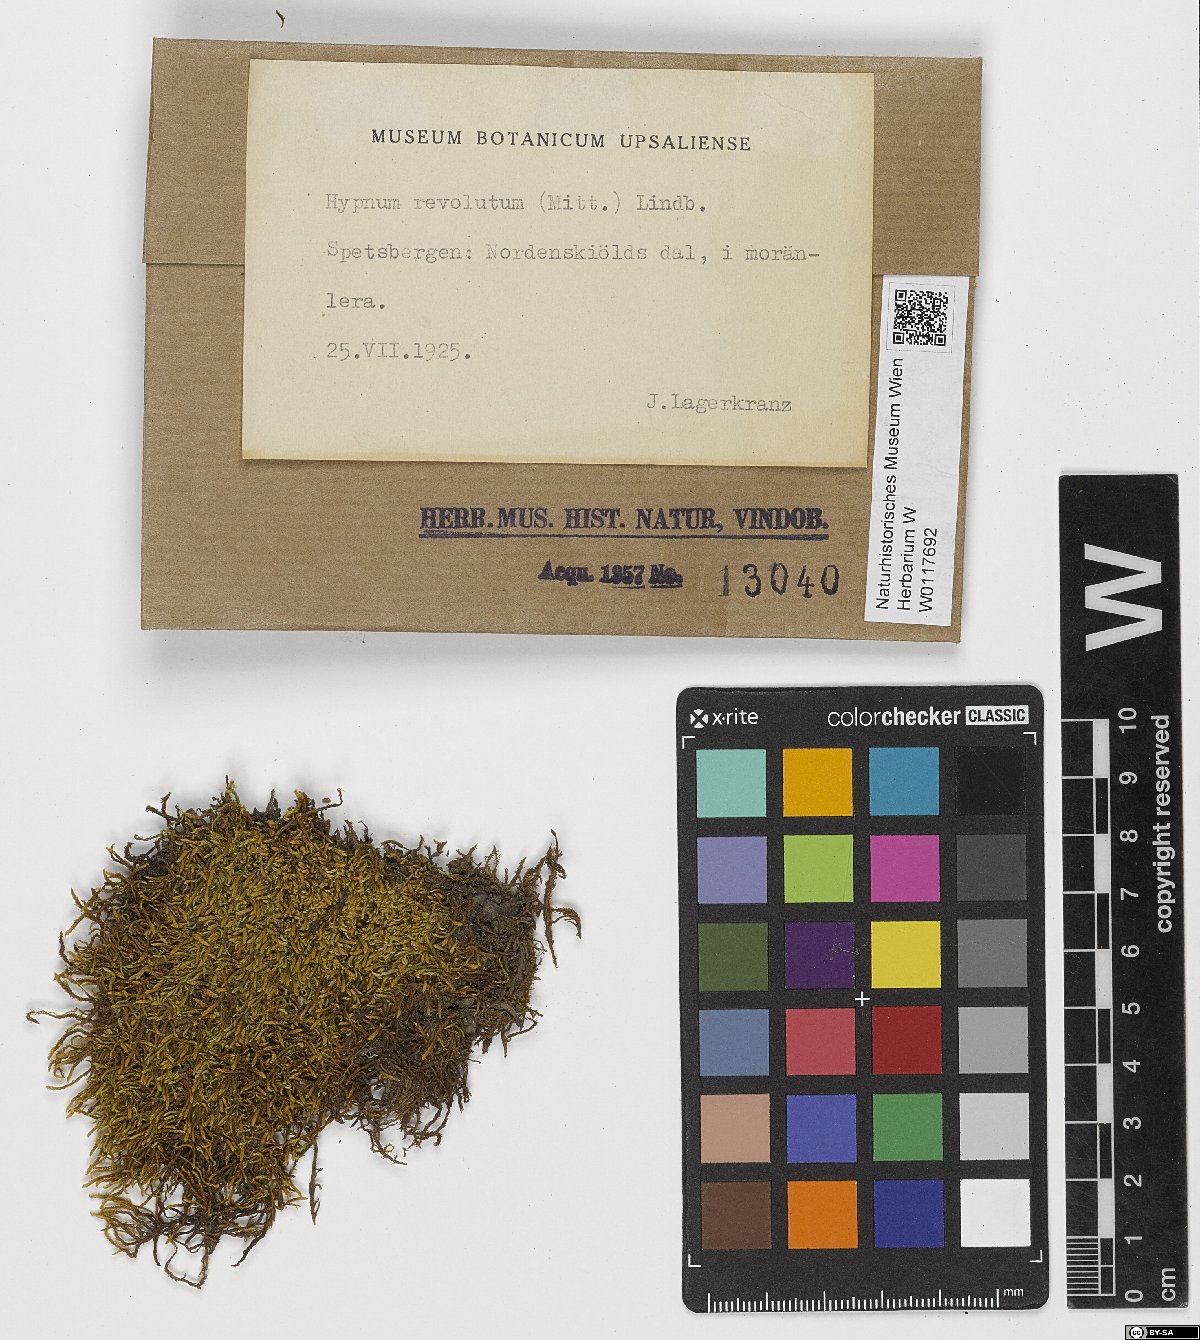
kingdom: Plantae
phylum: Bryophyta
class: Bryopsida
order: Hypnales
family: Pylaisiaceae
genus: Roaldia
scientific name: Roaldia revoluta
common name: Revolute plait-moss
